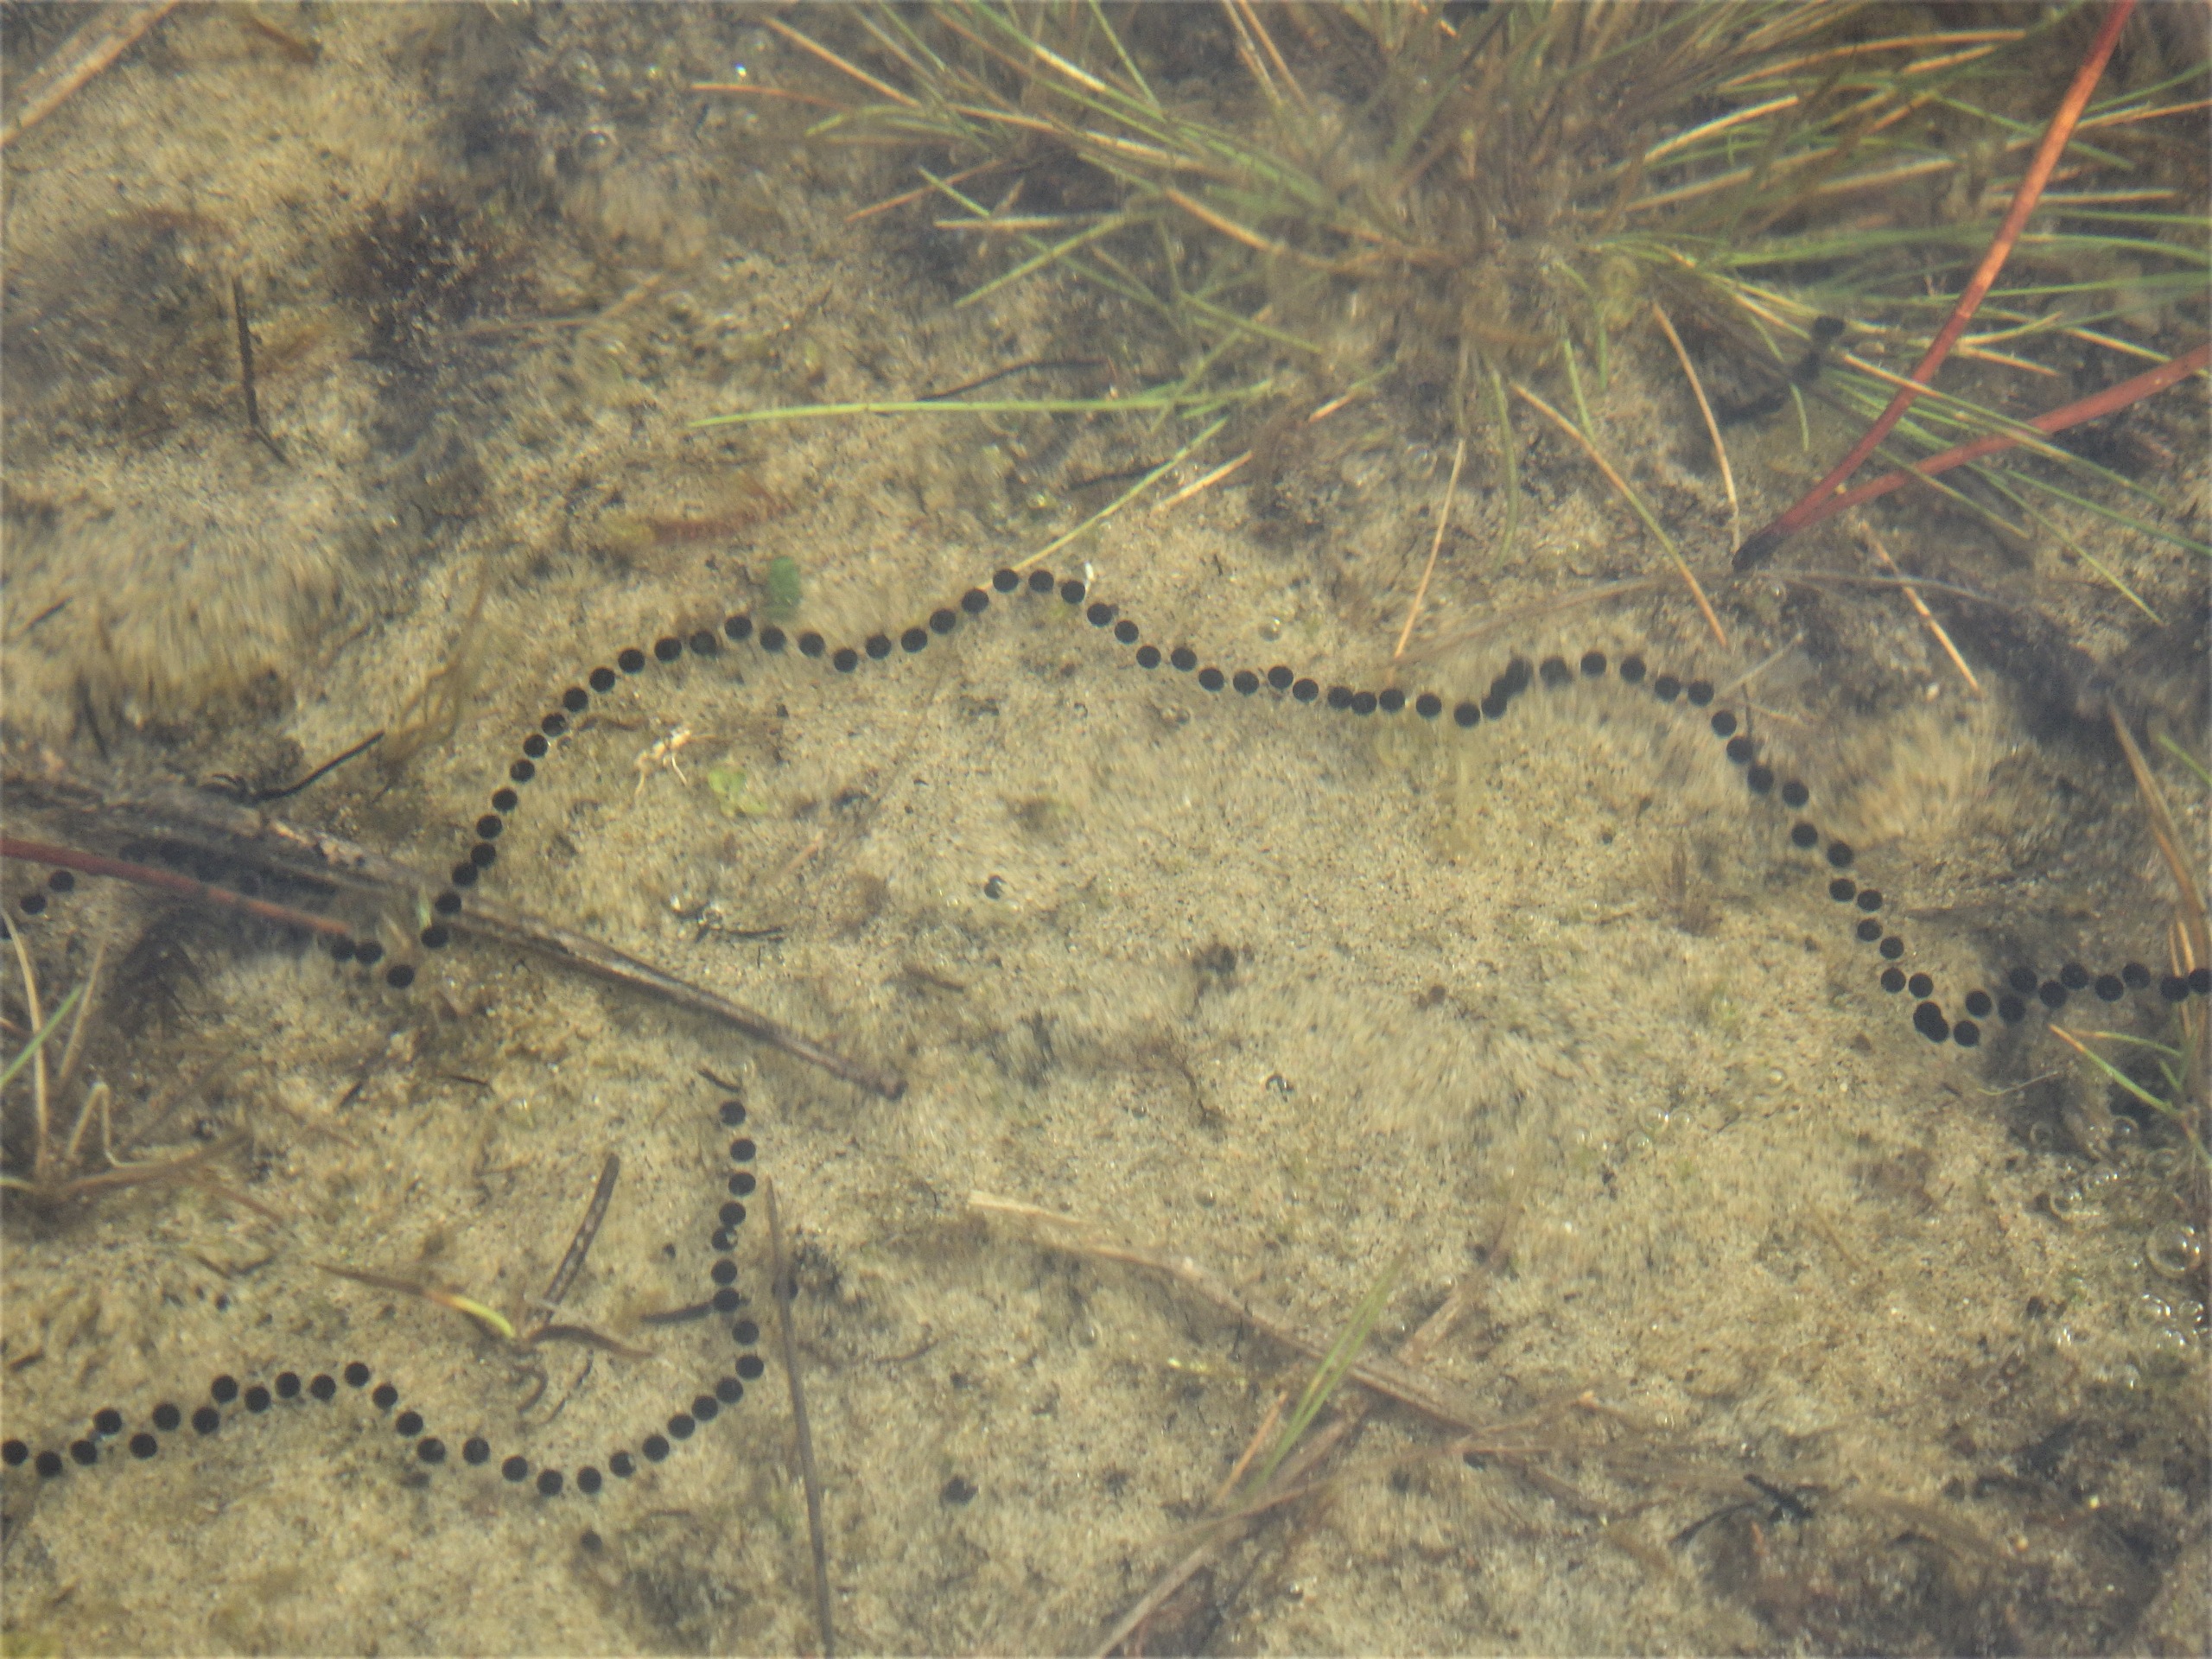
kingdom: Animalia
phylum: Chordata
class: Amphibia
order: Anura
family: Bufonidae
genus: Epidalea
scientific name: Epidalea calamita
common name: Strandtudse
